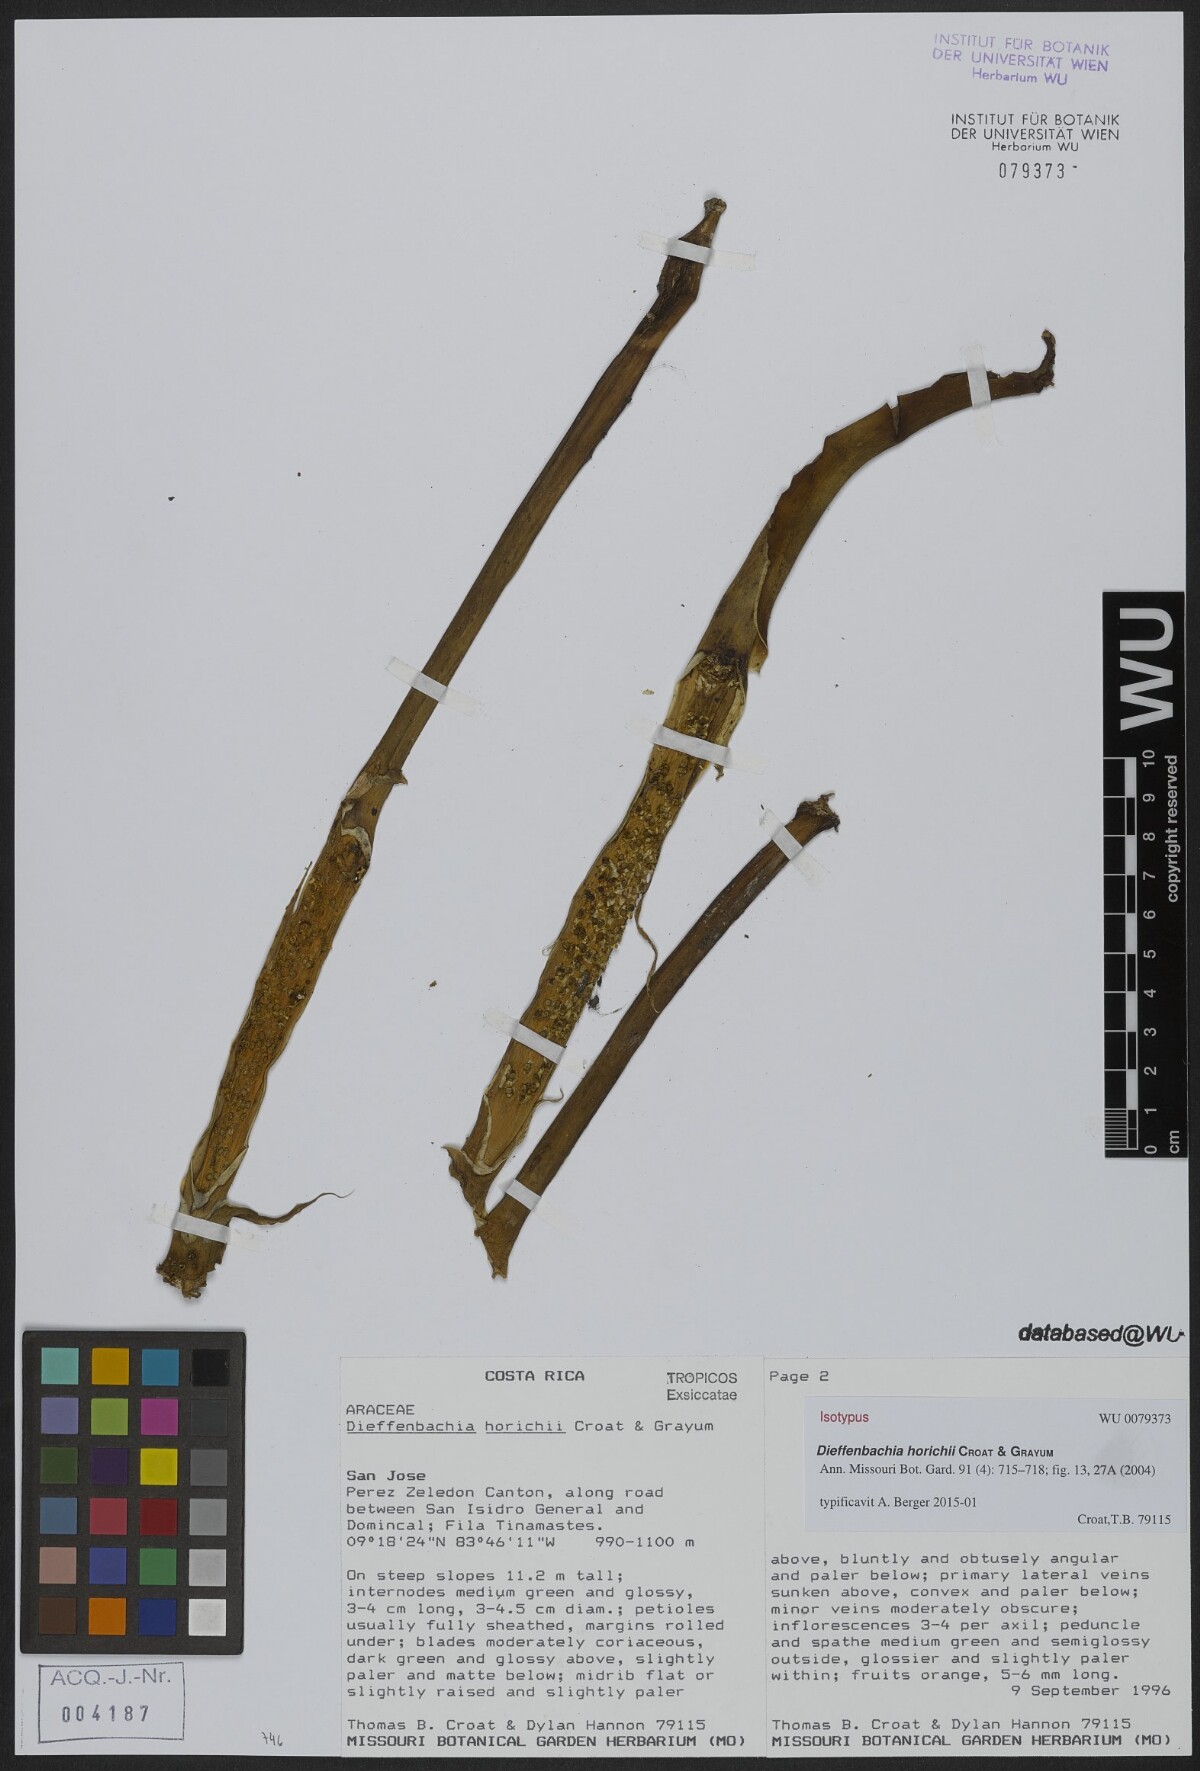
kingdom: Plantae
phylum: Tracheophyta
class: Liliopsida
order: Alismatales
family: Araceae
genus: Dieffenbachia
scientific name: Dieffenbachia horichii
